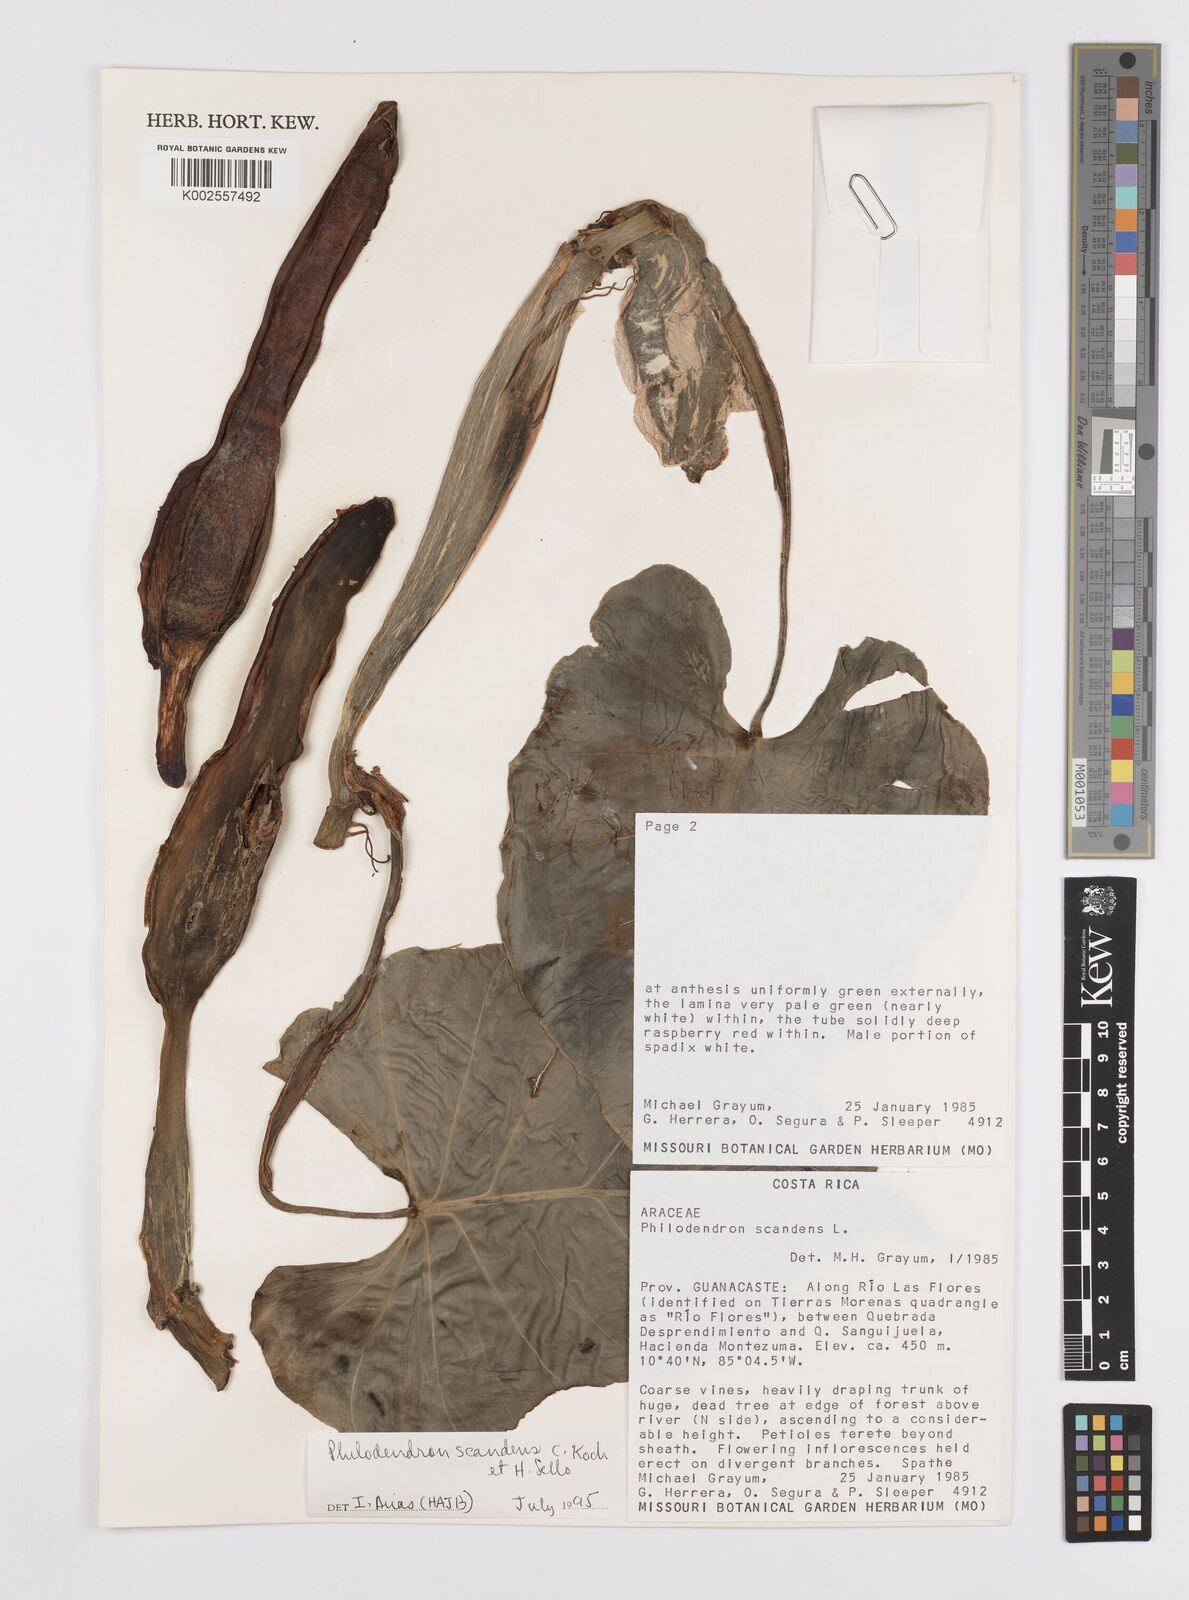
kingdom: Plantae
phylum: Tracheophyta
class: Liliopsida
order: Alismatales
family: Araceae
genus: Philodendron
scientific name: Philodendron hederaceum
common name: Vilevine
